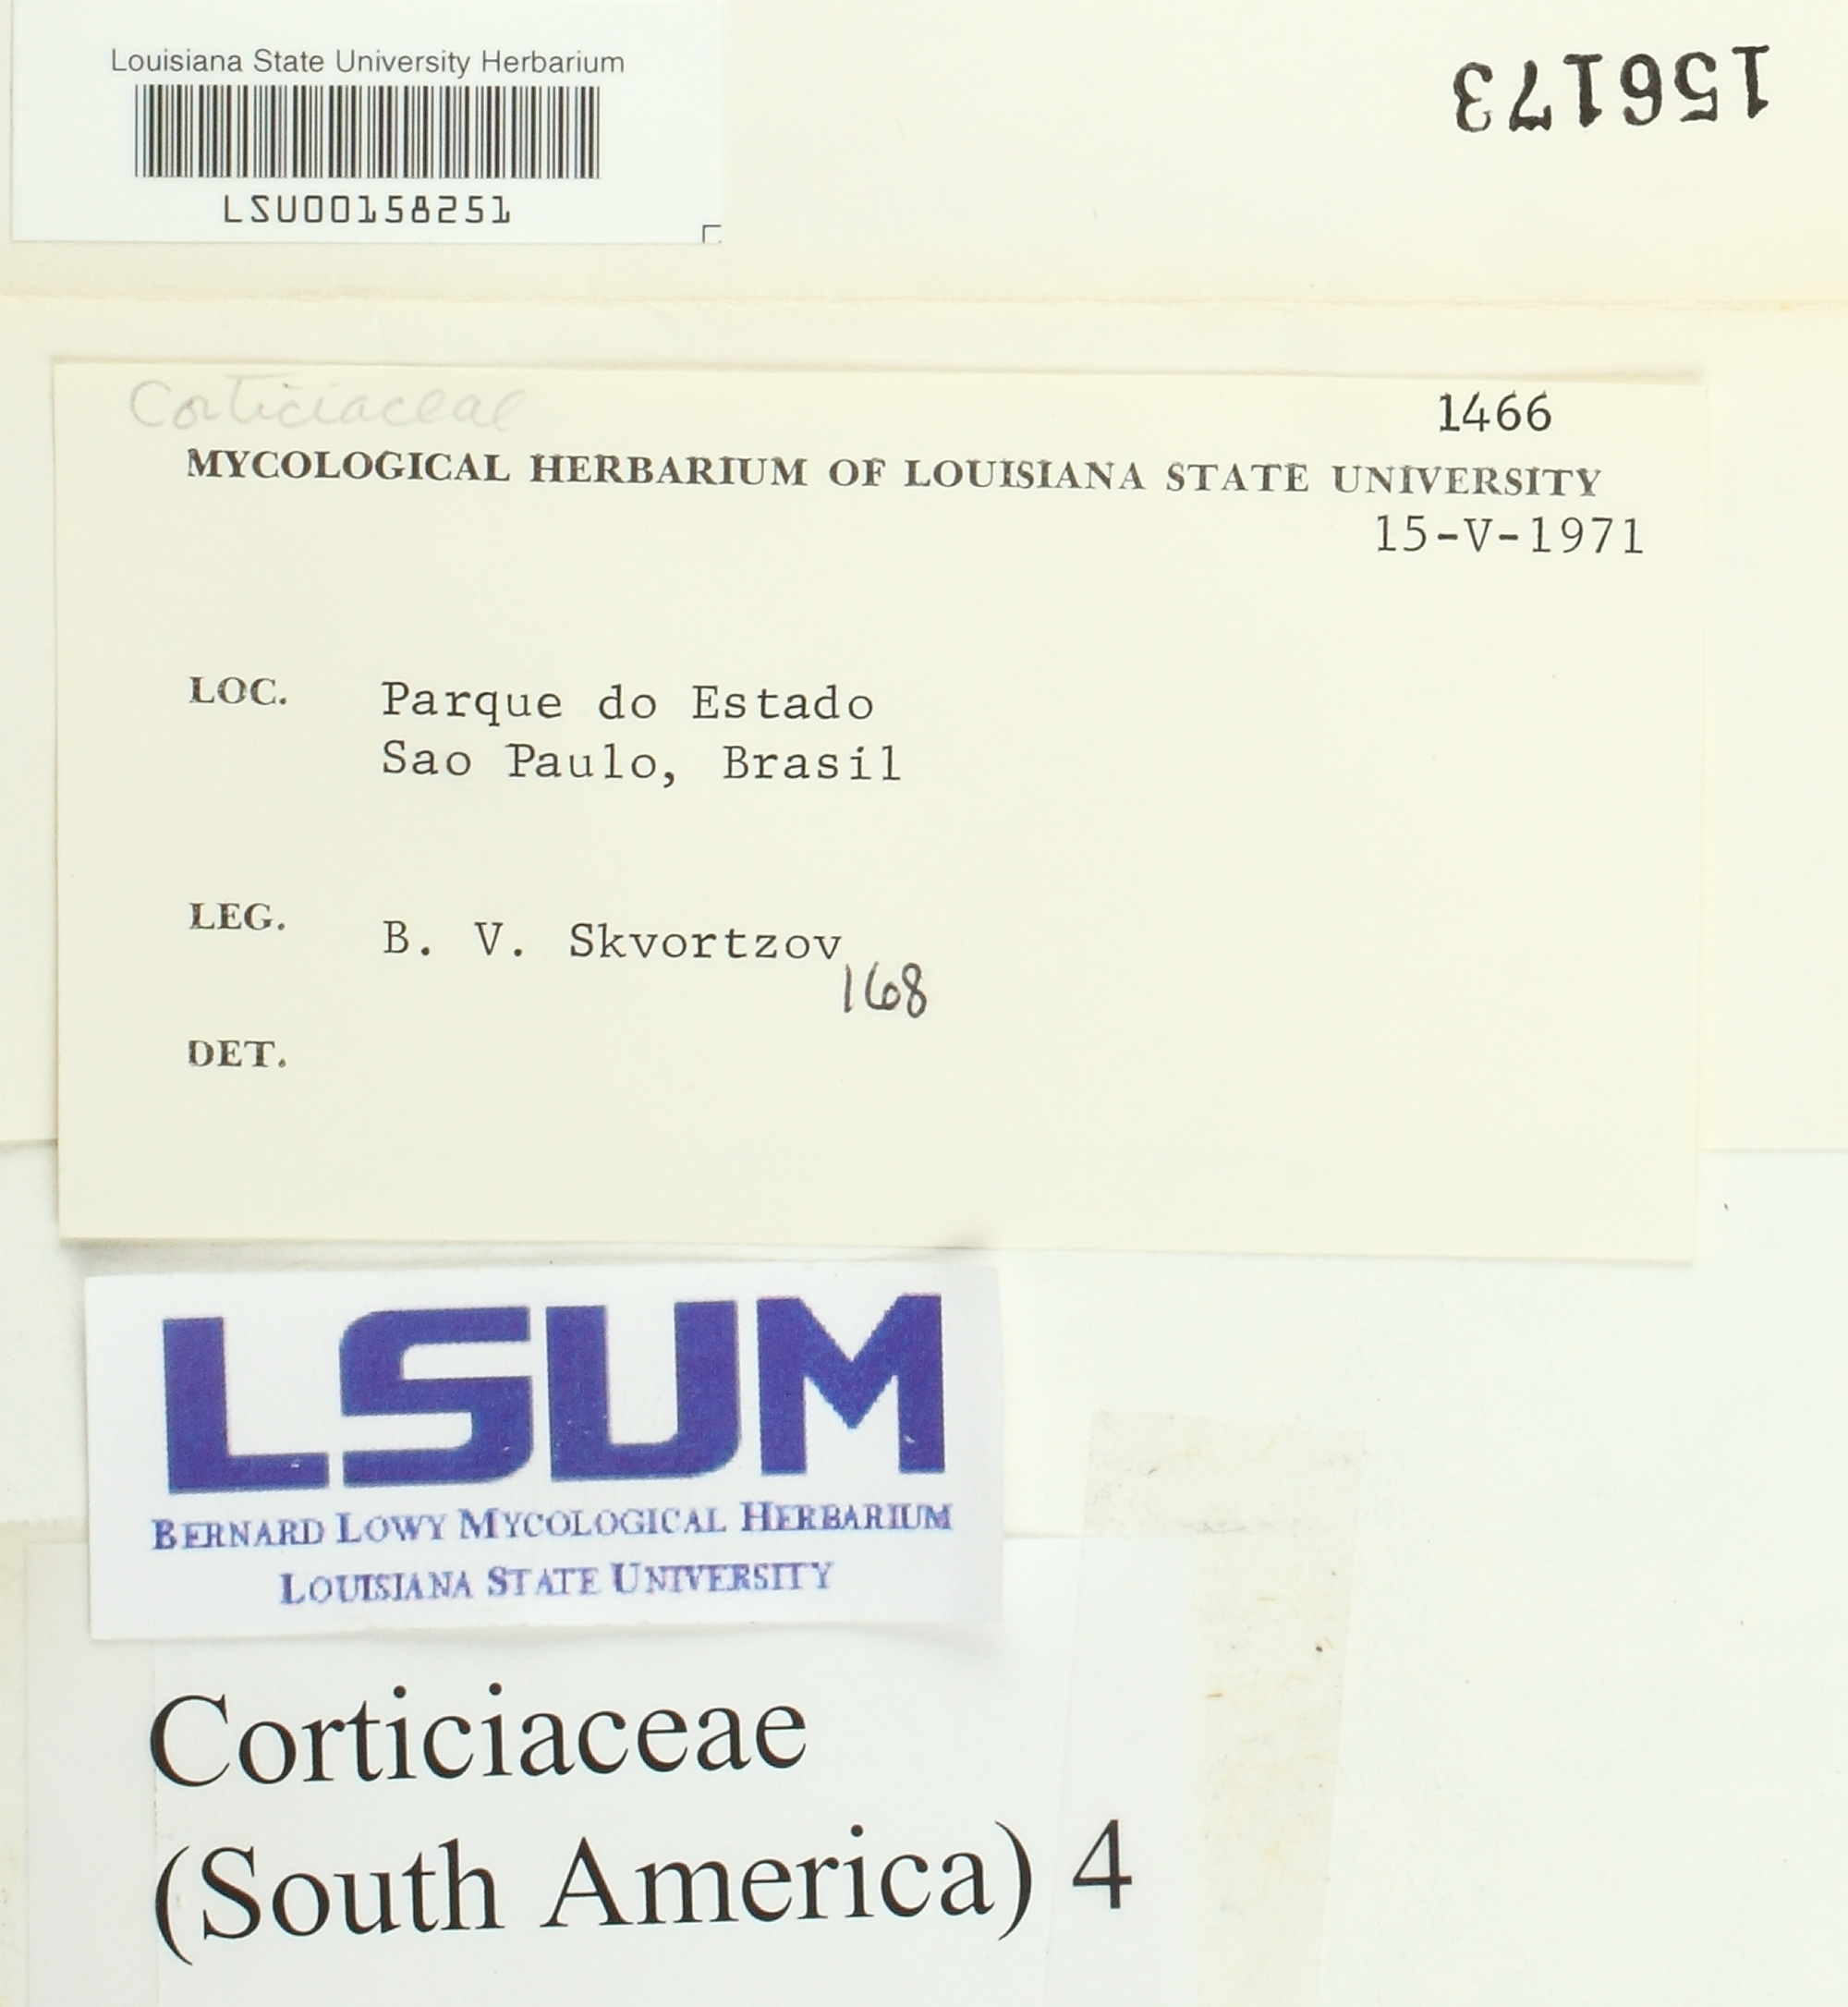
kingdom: Fungi
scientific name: Fungi
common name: Fungi
